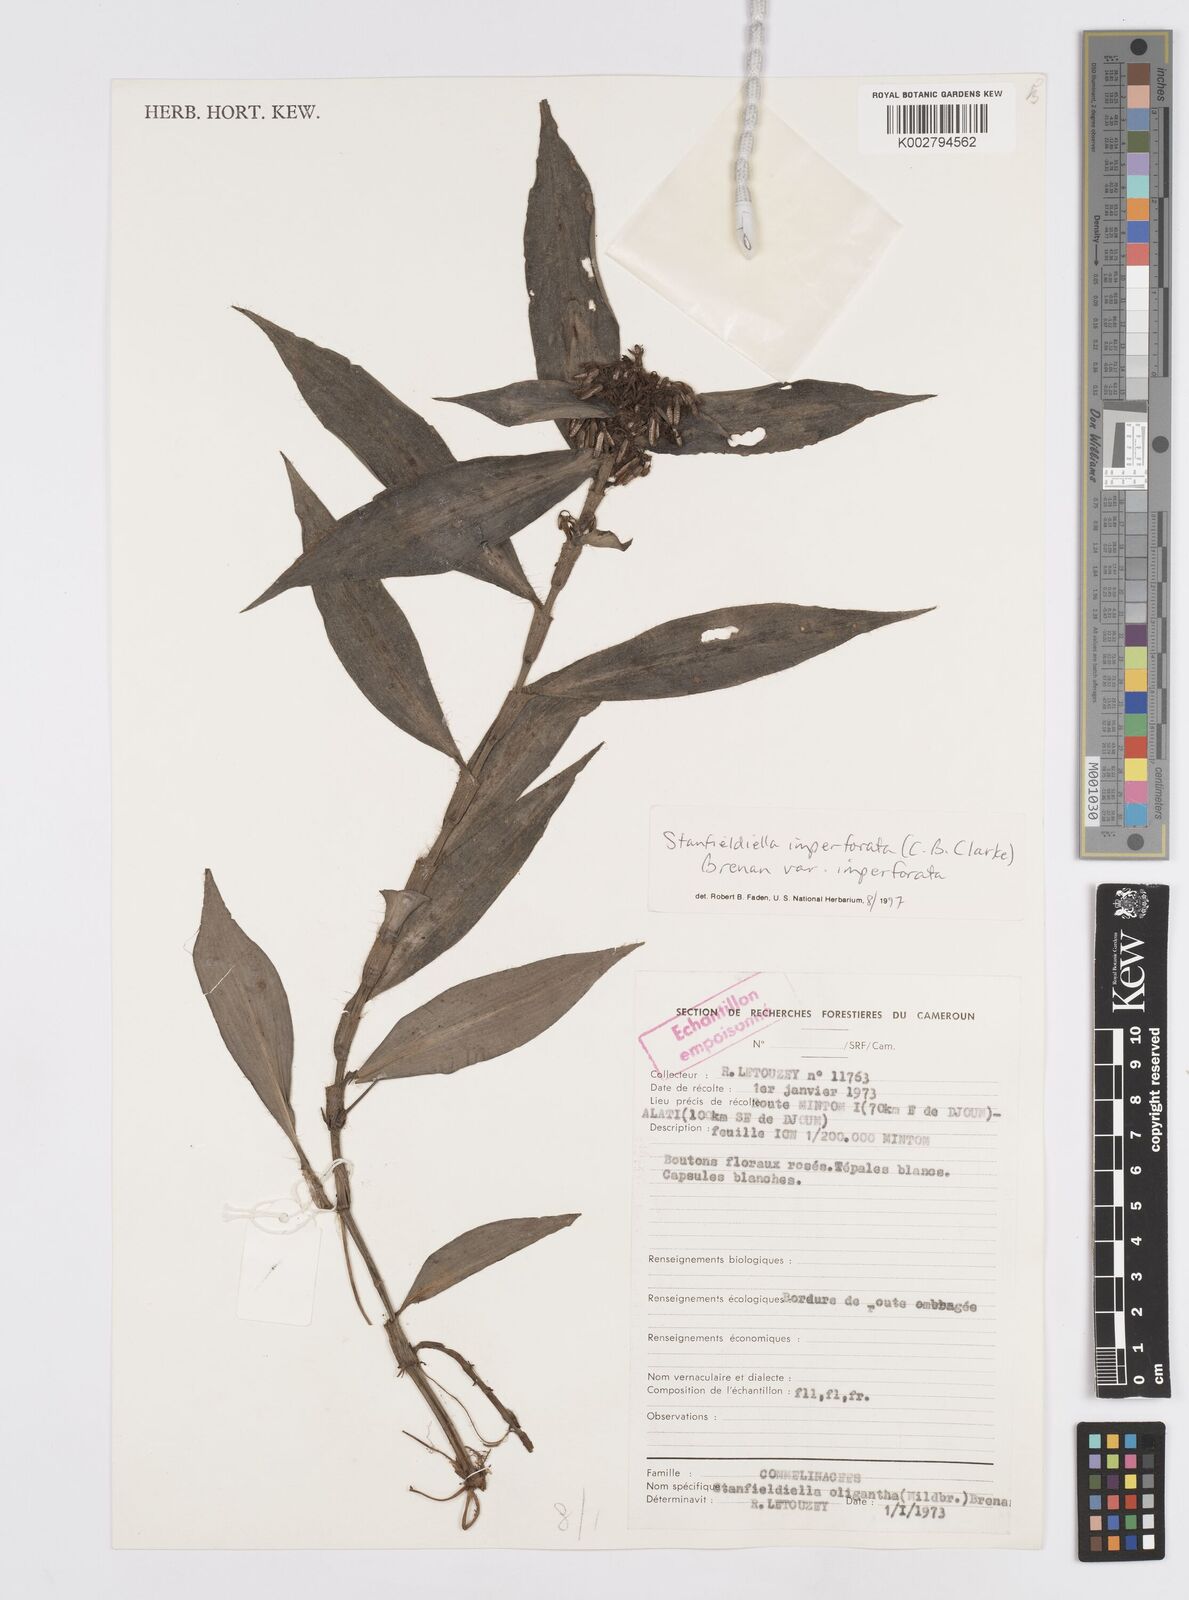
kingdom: Plantae
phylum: Tracheophyta
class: Liliopsida
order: Commelinales
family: Commelinaceae
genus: Stanfieldiella
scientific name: Stanfieldiella imperforata
